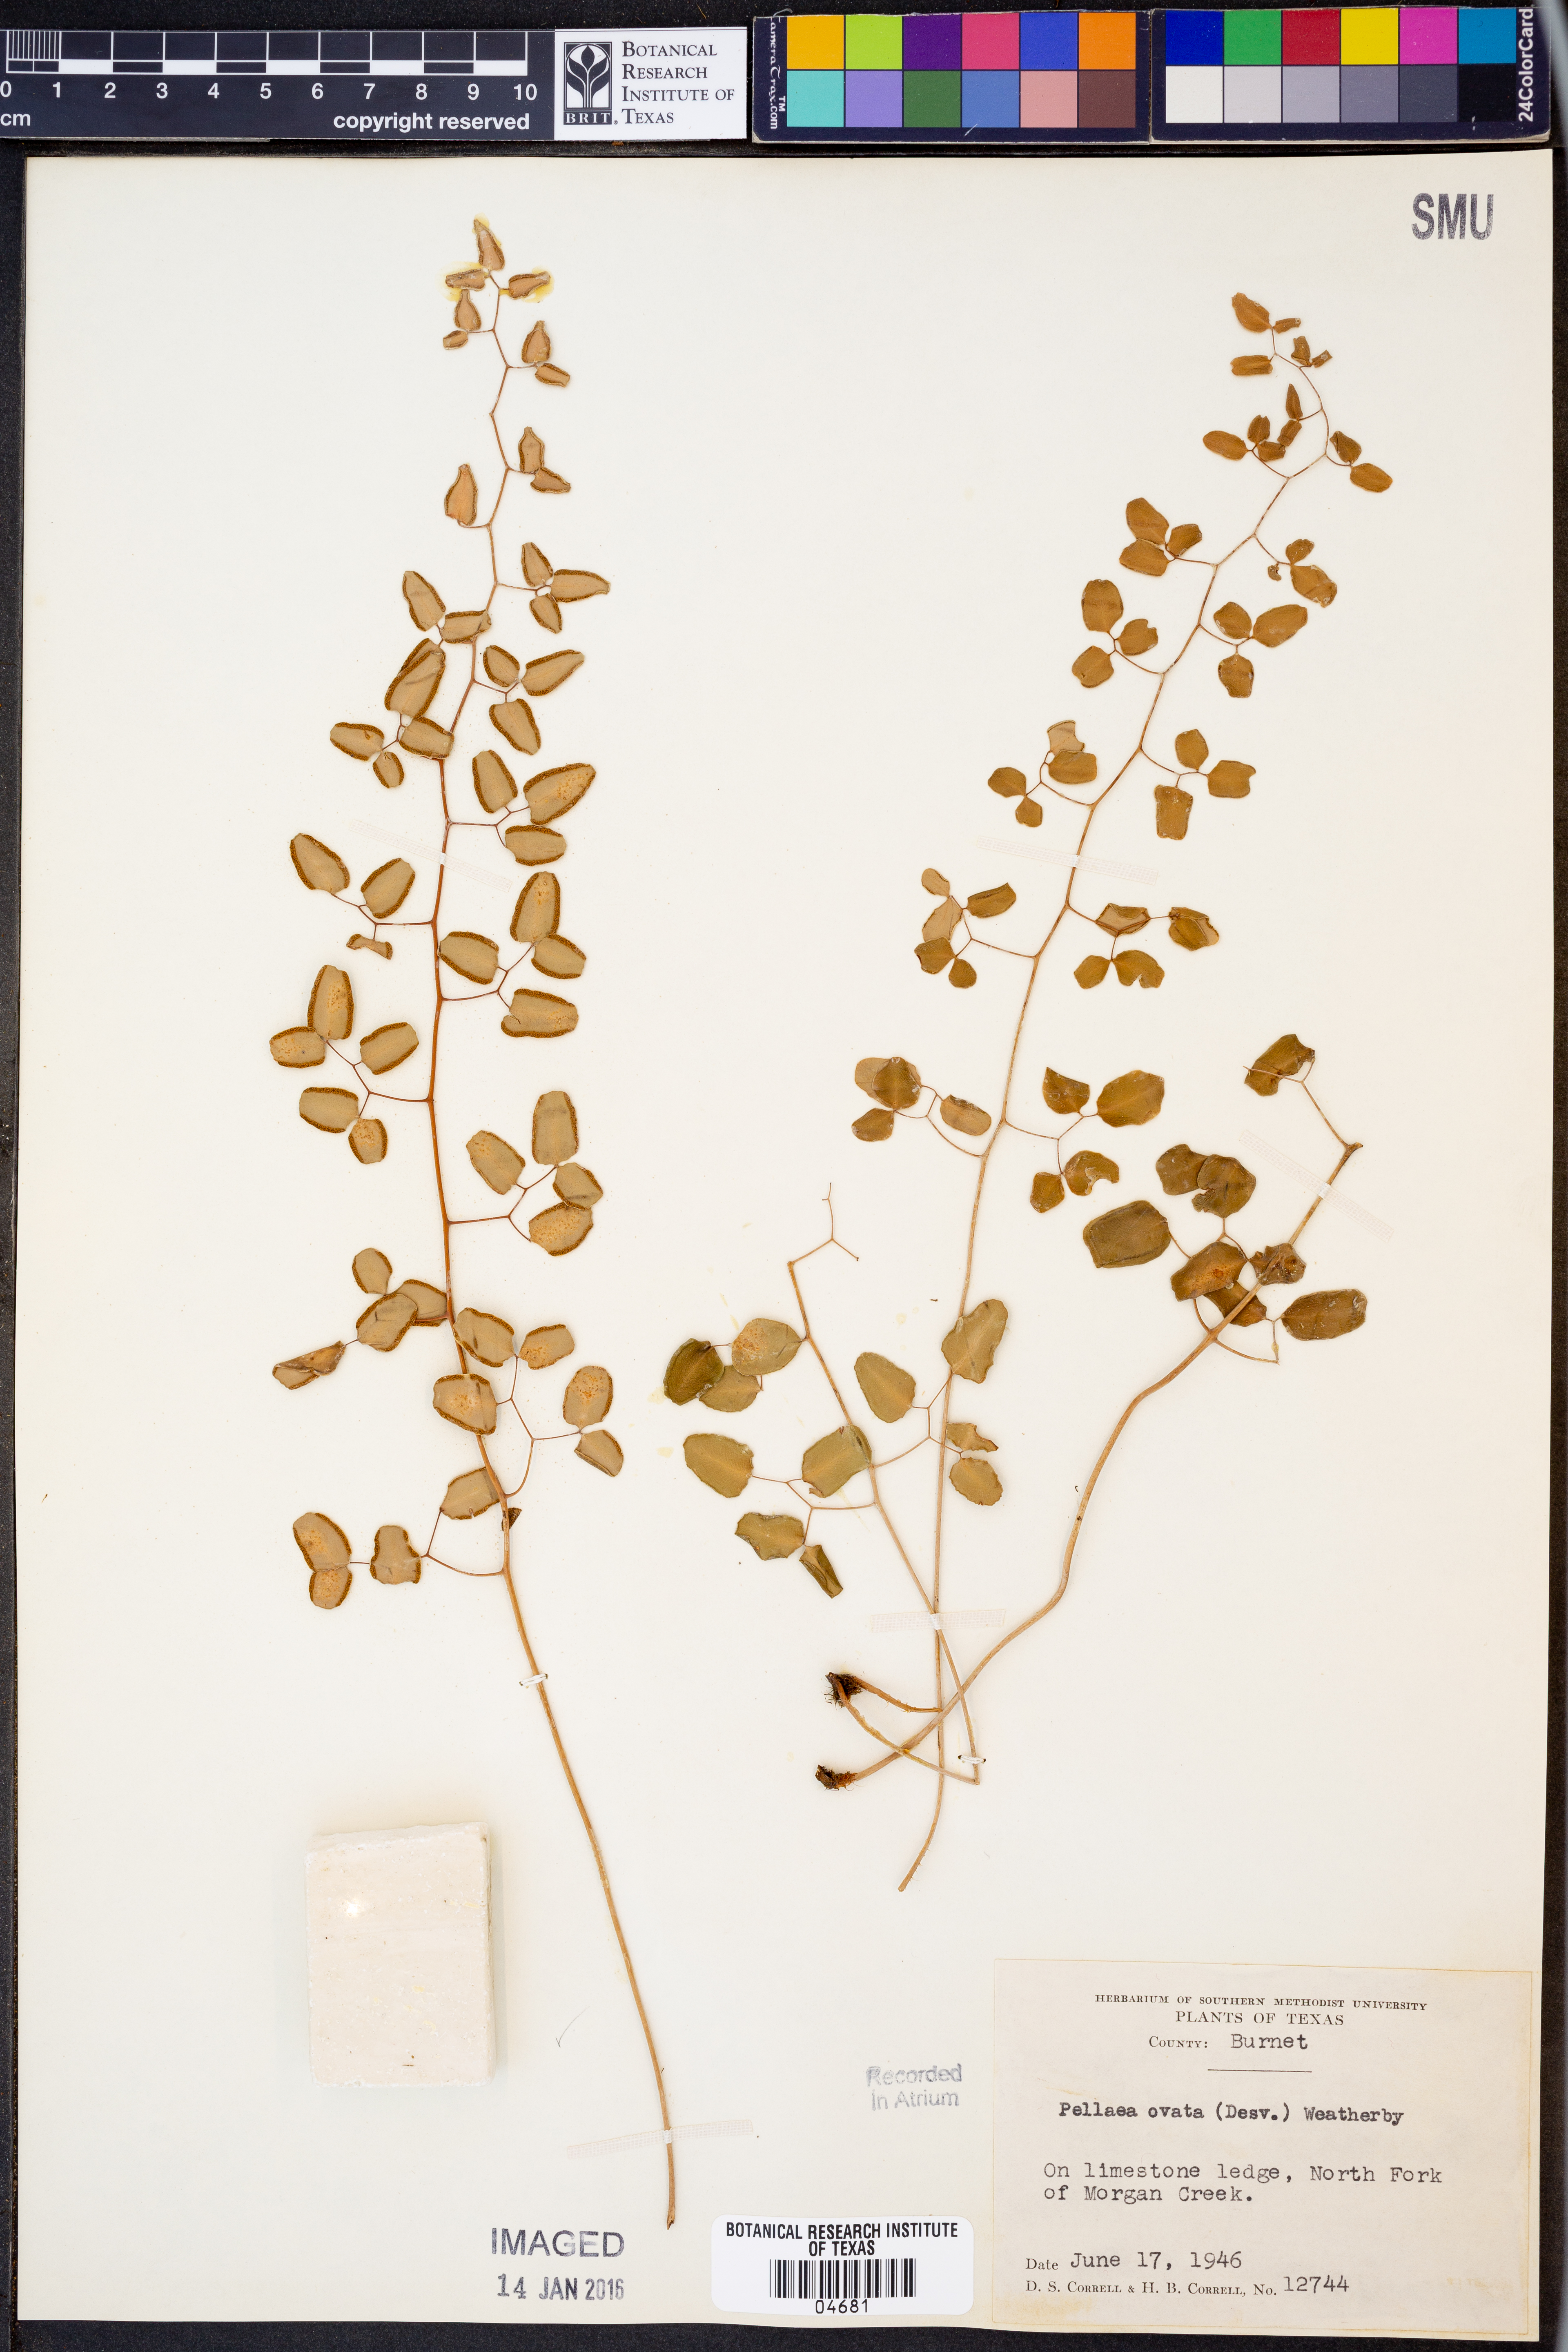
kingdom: Plantae
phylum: Tracheophyta
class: Polypodiopsida
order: Polypodiales
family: Pteridaceae
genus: Pellaea
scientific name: Pellaea ovata
